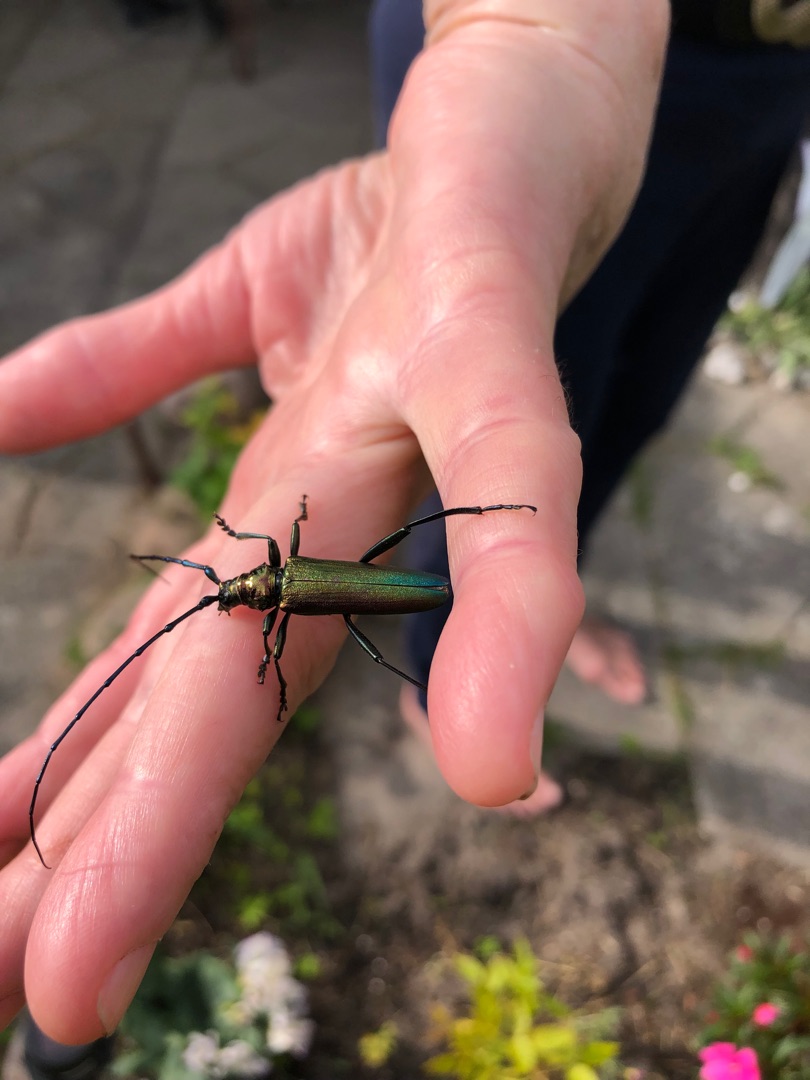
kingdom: Animalia
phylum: Arthropoda
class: Insecta
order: Coleoptera
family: Cerambycidae
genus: Aromia
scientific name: Aromia moschata
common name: Moskusbuk
